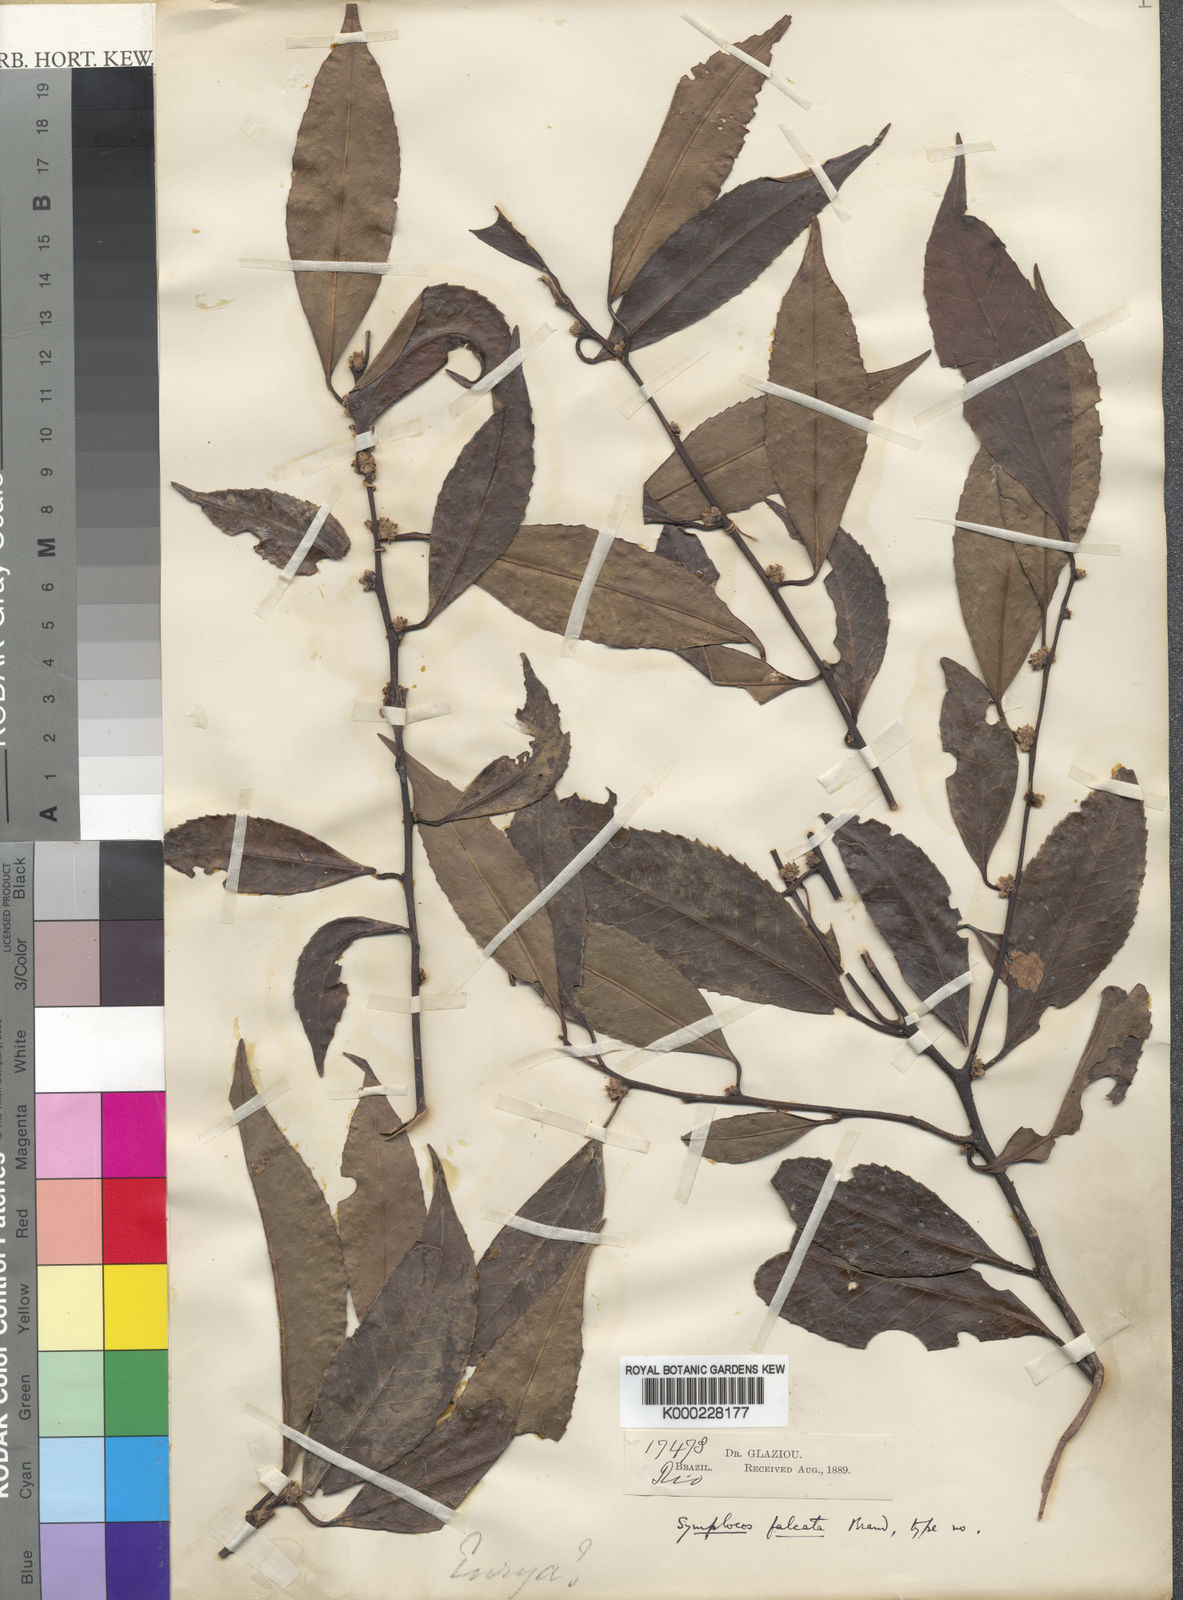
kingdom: Plantae
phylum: Tracheophyta
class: Magnoliopsida
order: Ericales
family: Symplocaceae
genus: Symplocos
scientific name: Symplocos falcata
